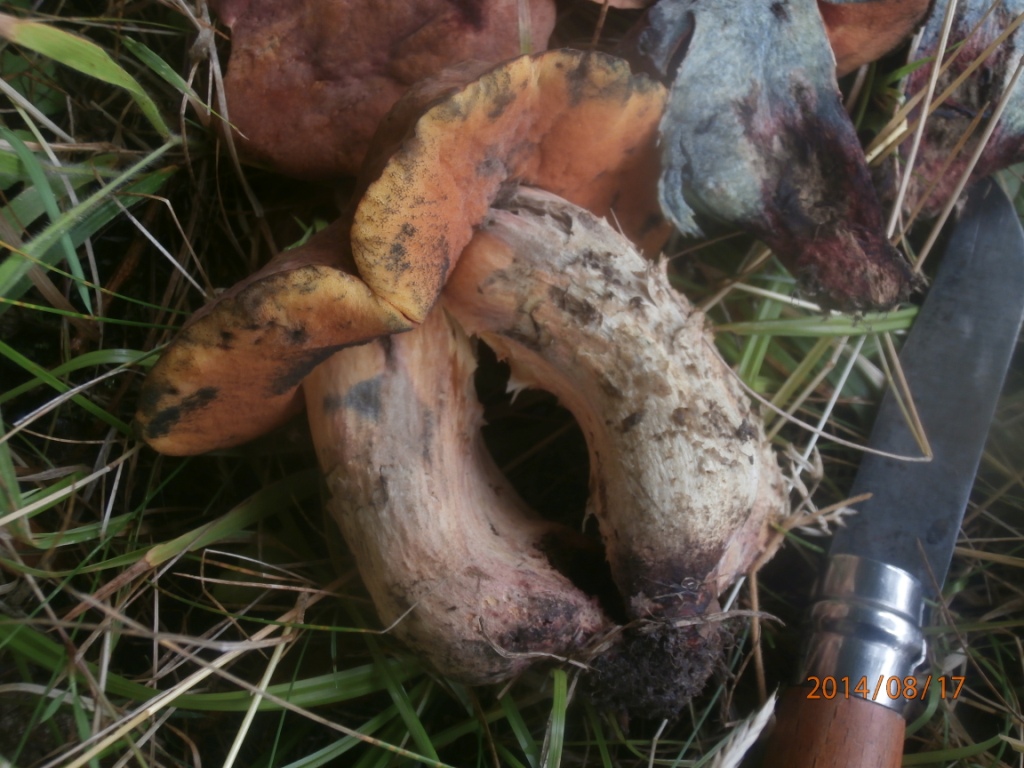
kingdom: Fungi
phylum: Basidiomycota
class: Agaricomycetes
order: Boletales
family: Boletaceae
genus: Suillellus
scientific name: Suillellus queletii
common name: glatstokket indigorørhat
